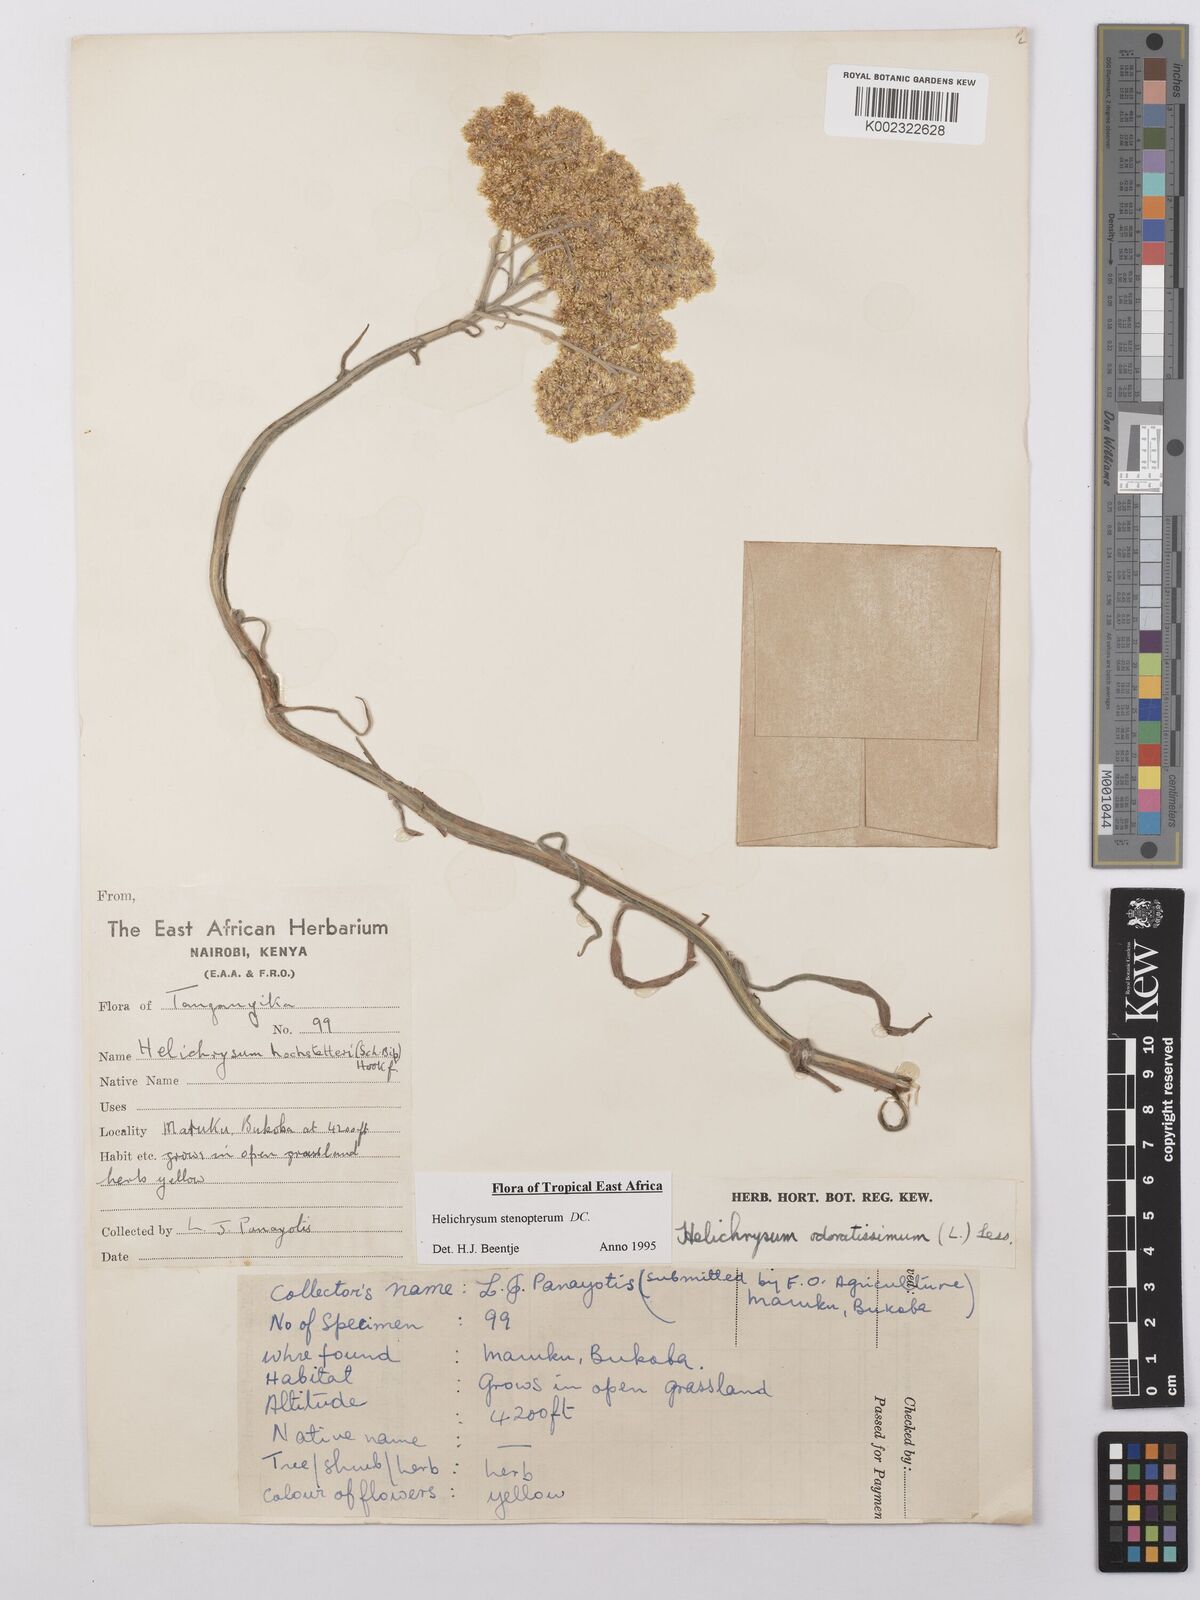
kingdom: Plantae
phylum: Tracheophyta
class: Magnoliopsida
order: Asterales
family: Asteraceae
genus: Helichrysum
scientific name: Helichrysum stenopterum
